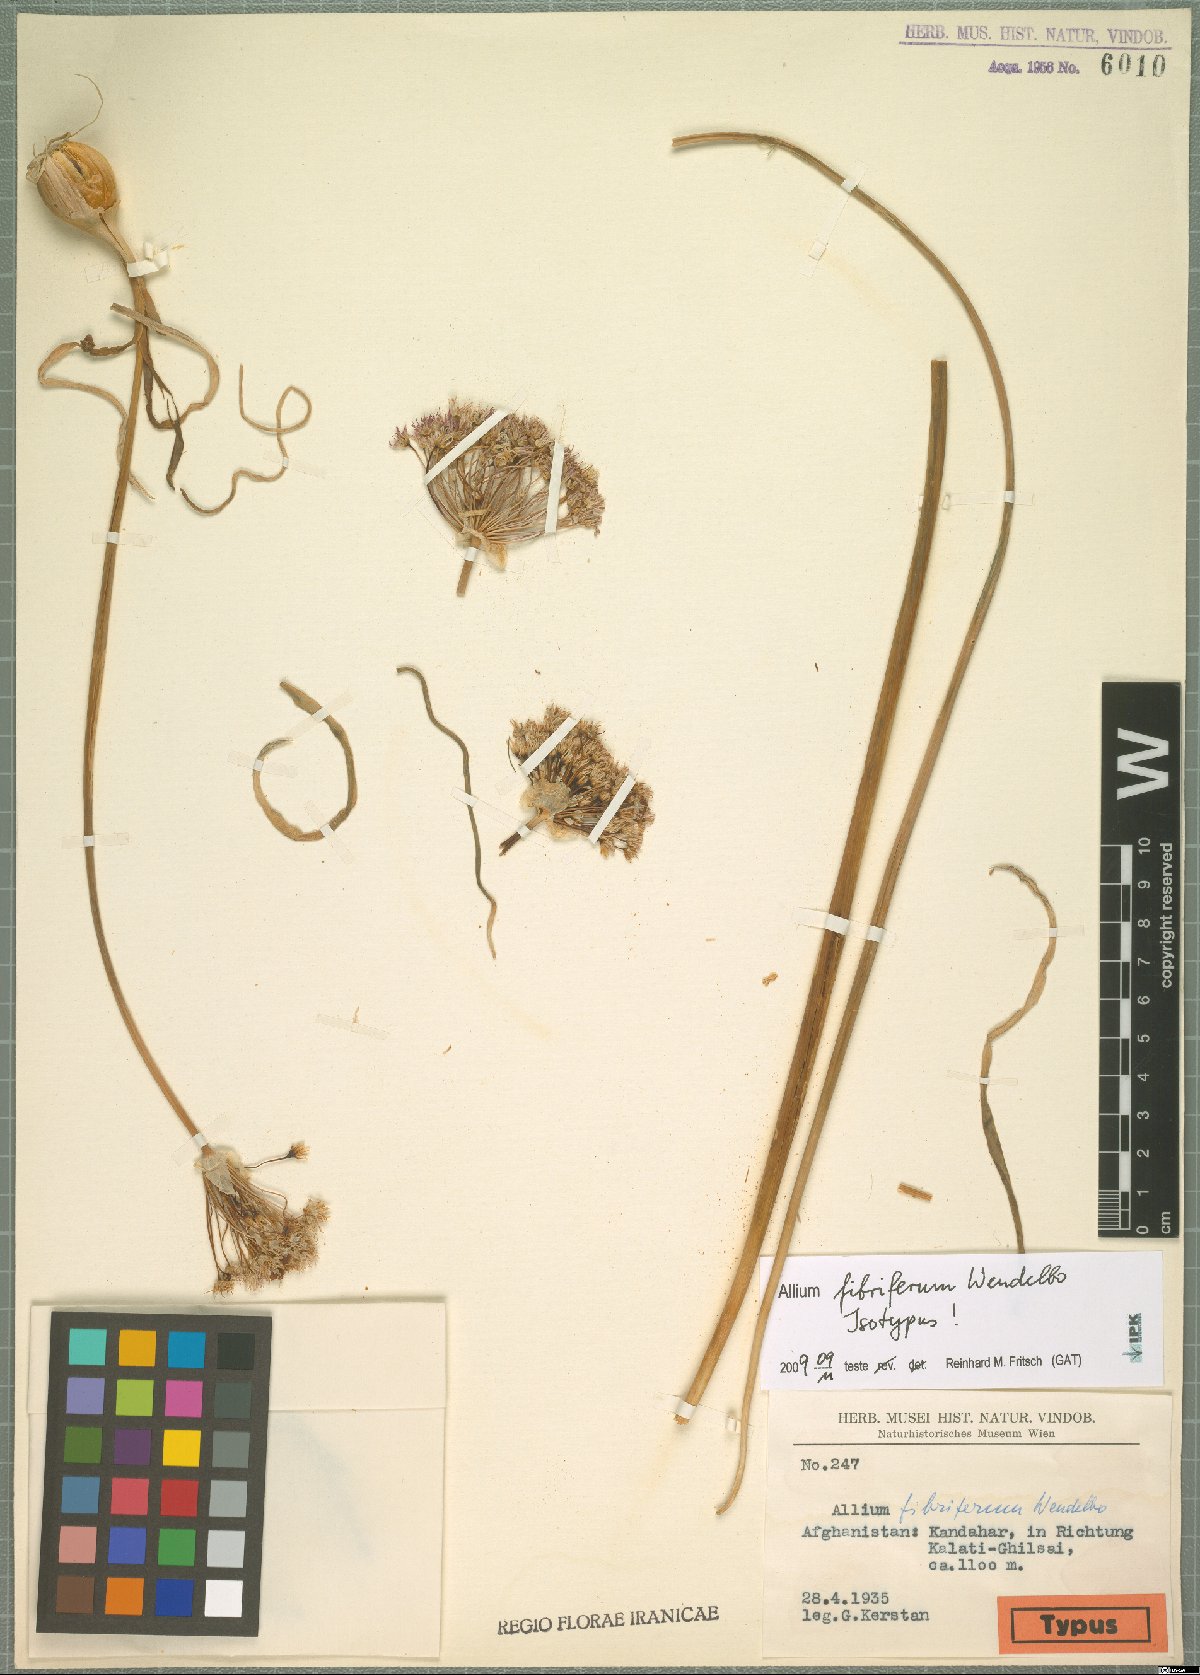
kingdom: Plantae
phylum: Tracheophyta
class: Liliopsida
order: Asparagales
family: Amaryllidaceae
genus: Allium
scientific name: Allium fibriferum
